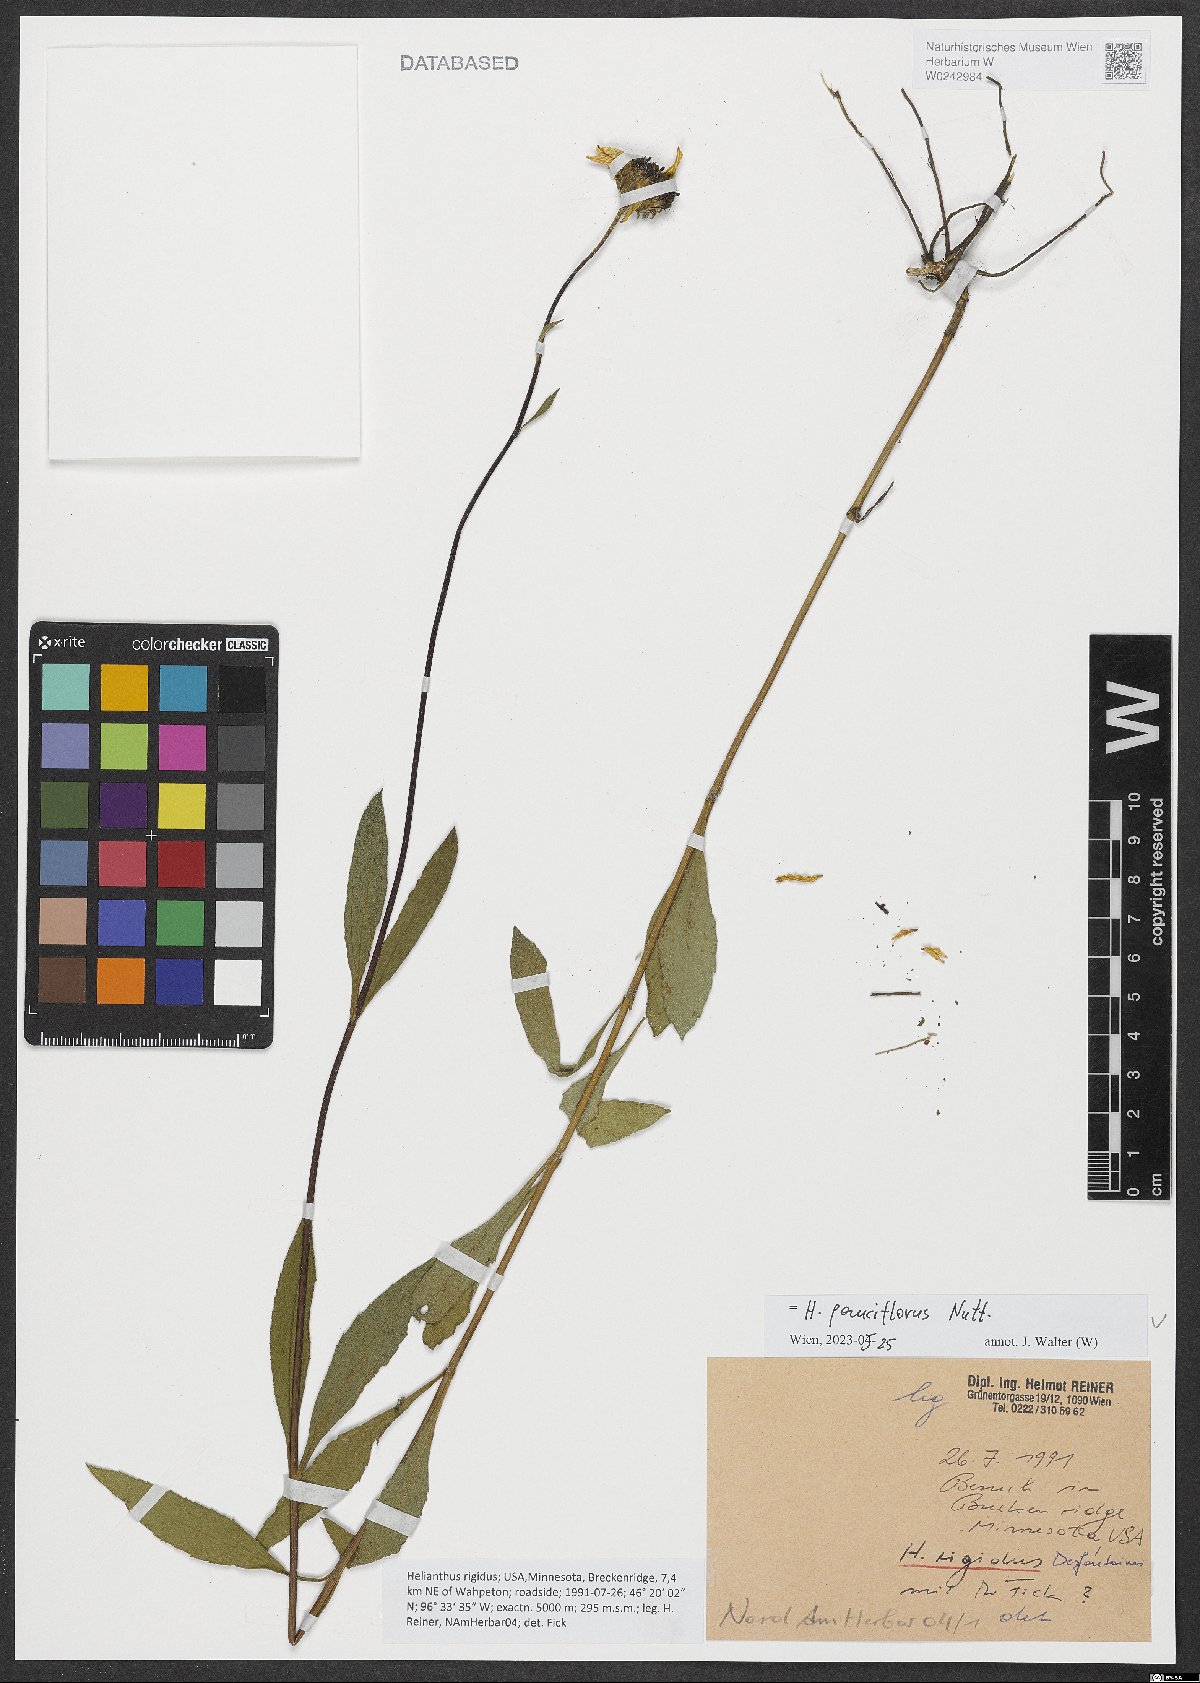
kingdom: Plantae
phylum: Tracheophyta
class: Magnoliopsida
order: Asterales
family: Asteraceae
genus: Helianthus
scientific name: Helianthus pauciflorus
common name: Stiff sunflower
